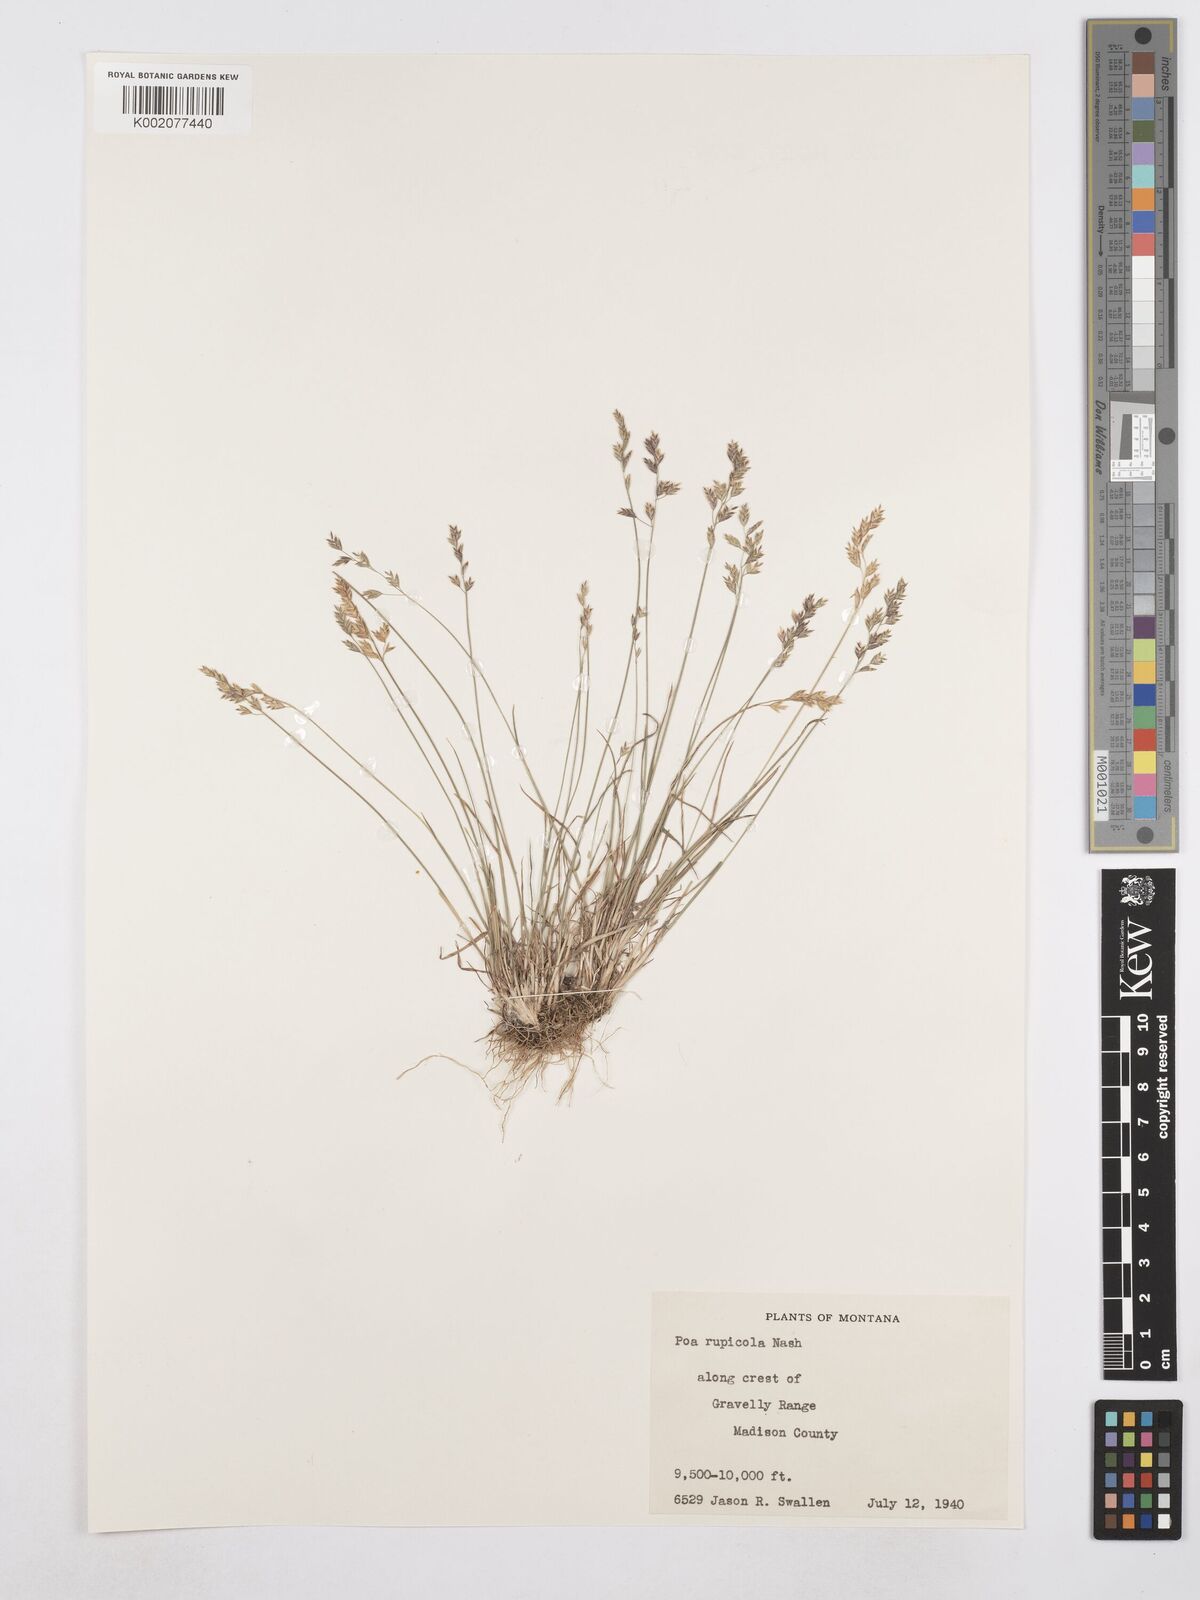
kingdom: Plantae
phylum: Tracheophyta
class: Liliopsida
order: Poales
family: Poaceae
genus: Poa
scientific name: Poa glauca
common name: Glaucous bluegrass
